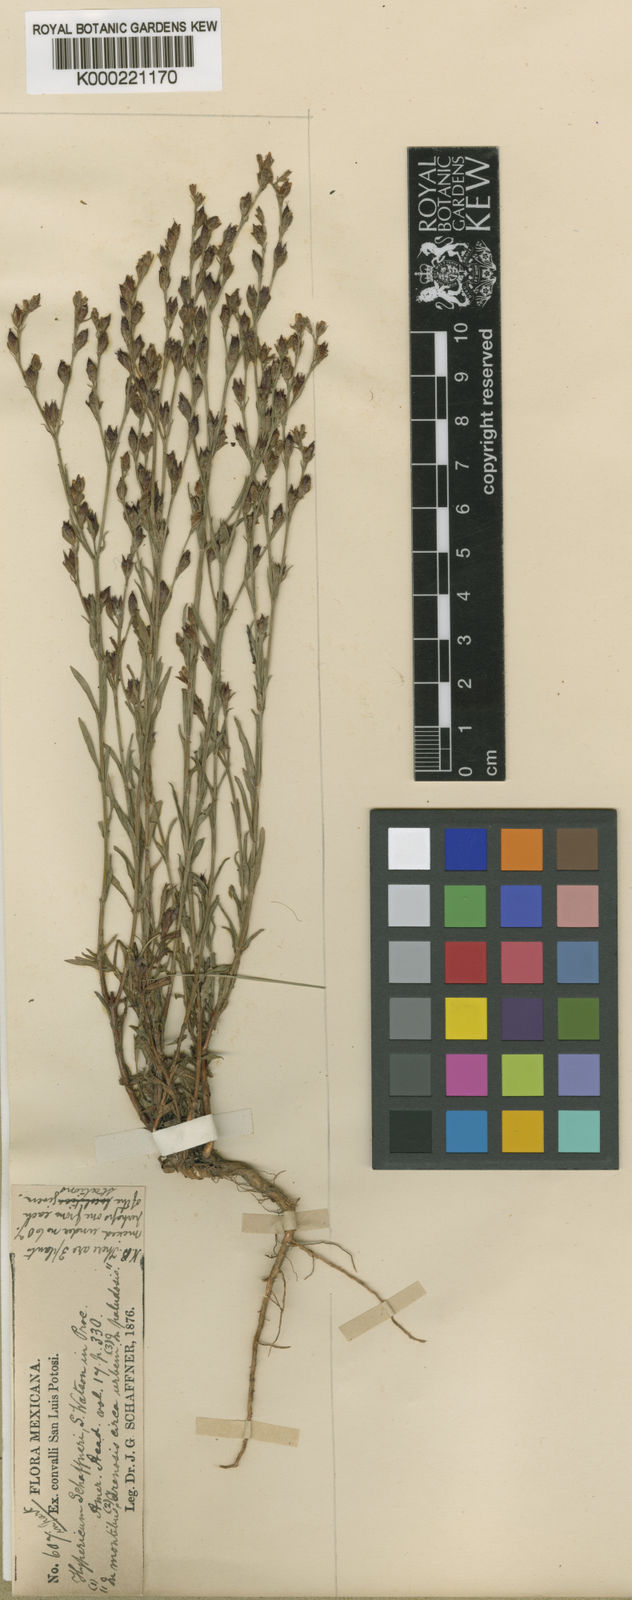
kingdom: Plantae
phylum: Tracheophyta
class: Magnoliopsida
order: Malpighiales
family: Hypericaceae
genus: Hypericum
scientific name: Hypericum moranense
